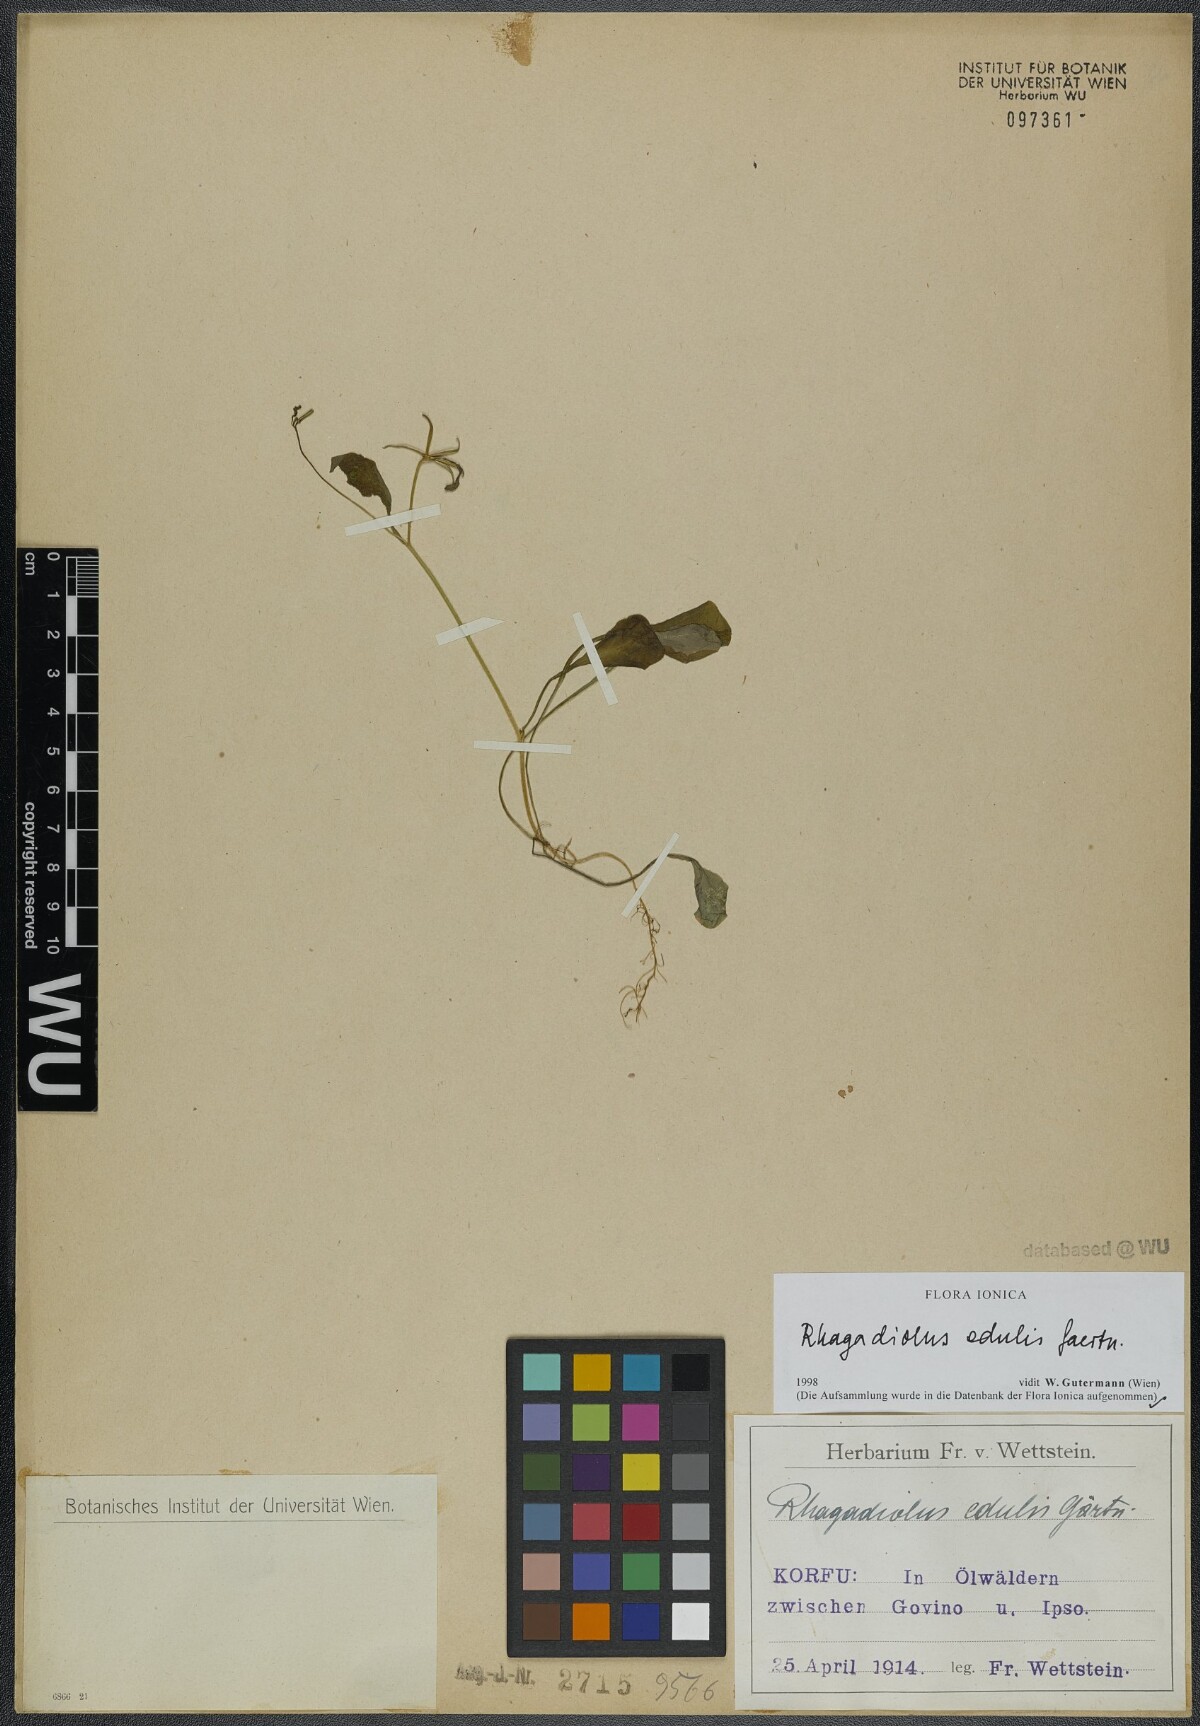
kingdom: Plantae
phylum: Tracheophyta
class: Magnoliopsida
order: Asterales
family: Asteraceae
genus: Rhagadiolus
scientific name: Rhagadiolus edulis
